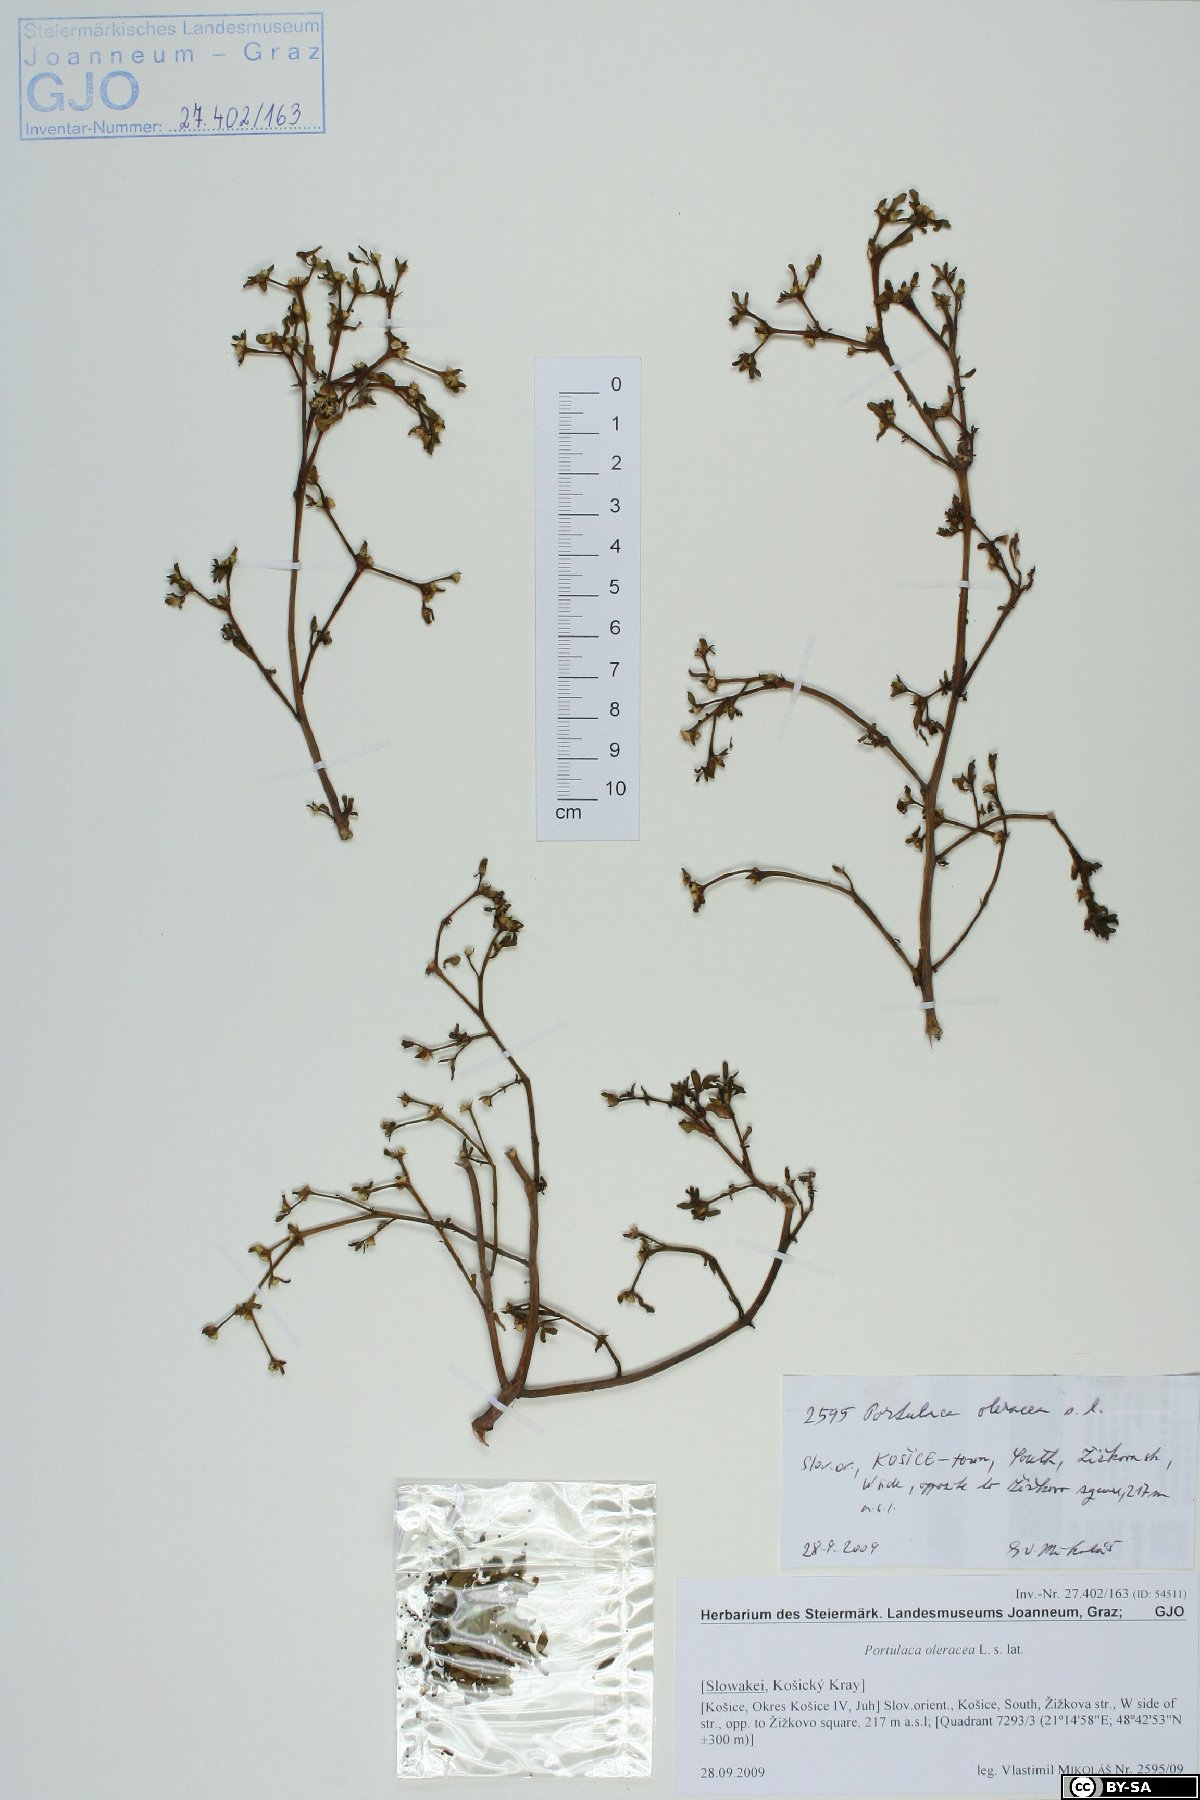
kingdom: Plantae
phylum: Tracheophyta
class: Magnoliopsida
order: Caryophyllales
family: Portulacaceae
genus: Portulaca
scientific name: Portulaca oleracea
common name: Common purslane
